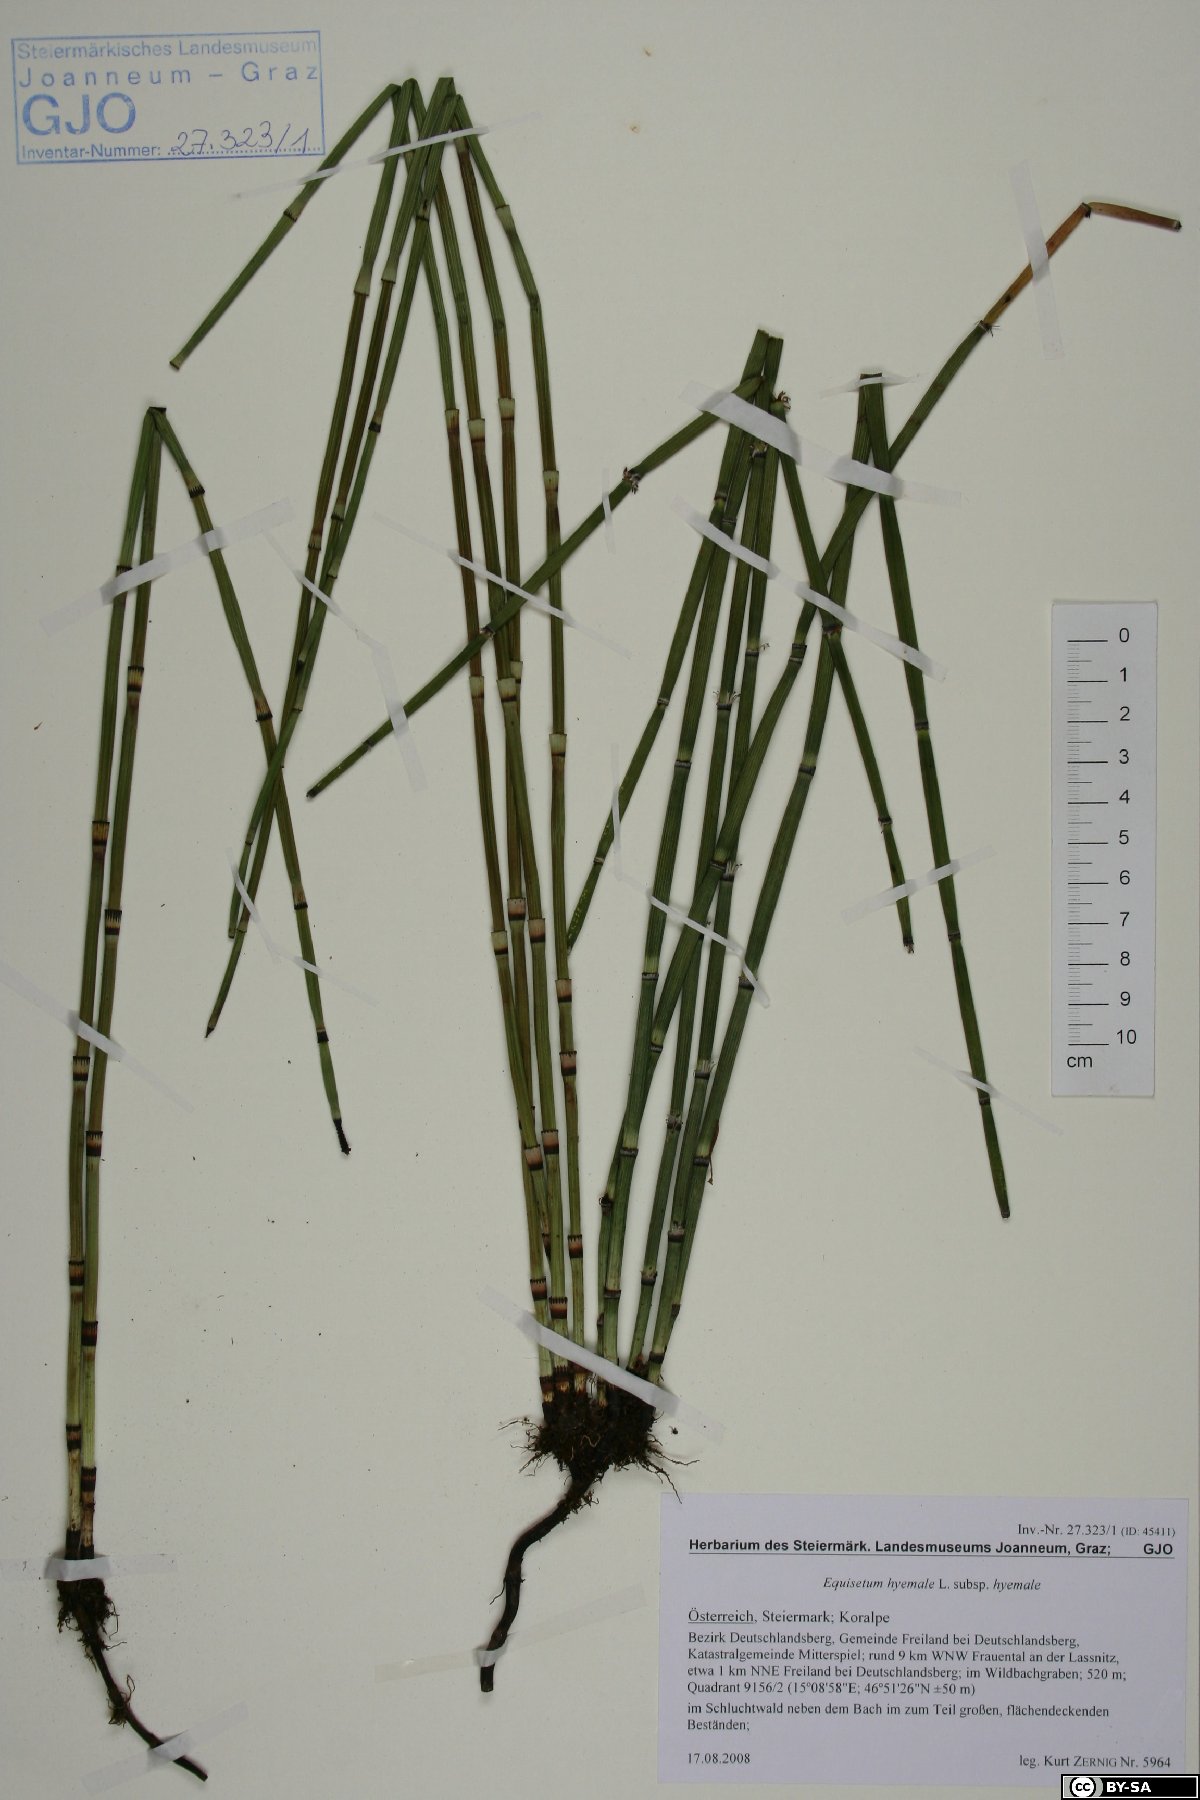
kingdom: Plantae
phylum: Tracheophyta
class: Polypodiopsida
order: Equisetales
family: Equisetaceae
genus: Equisetum
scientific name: Equisetum hyemale
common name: Rough horsetail
